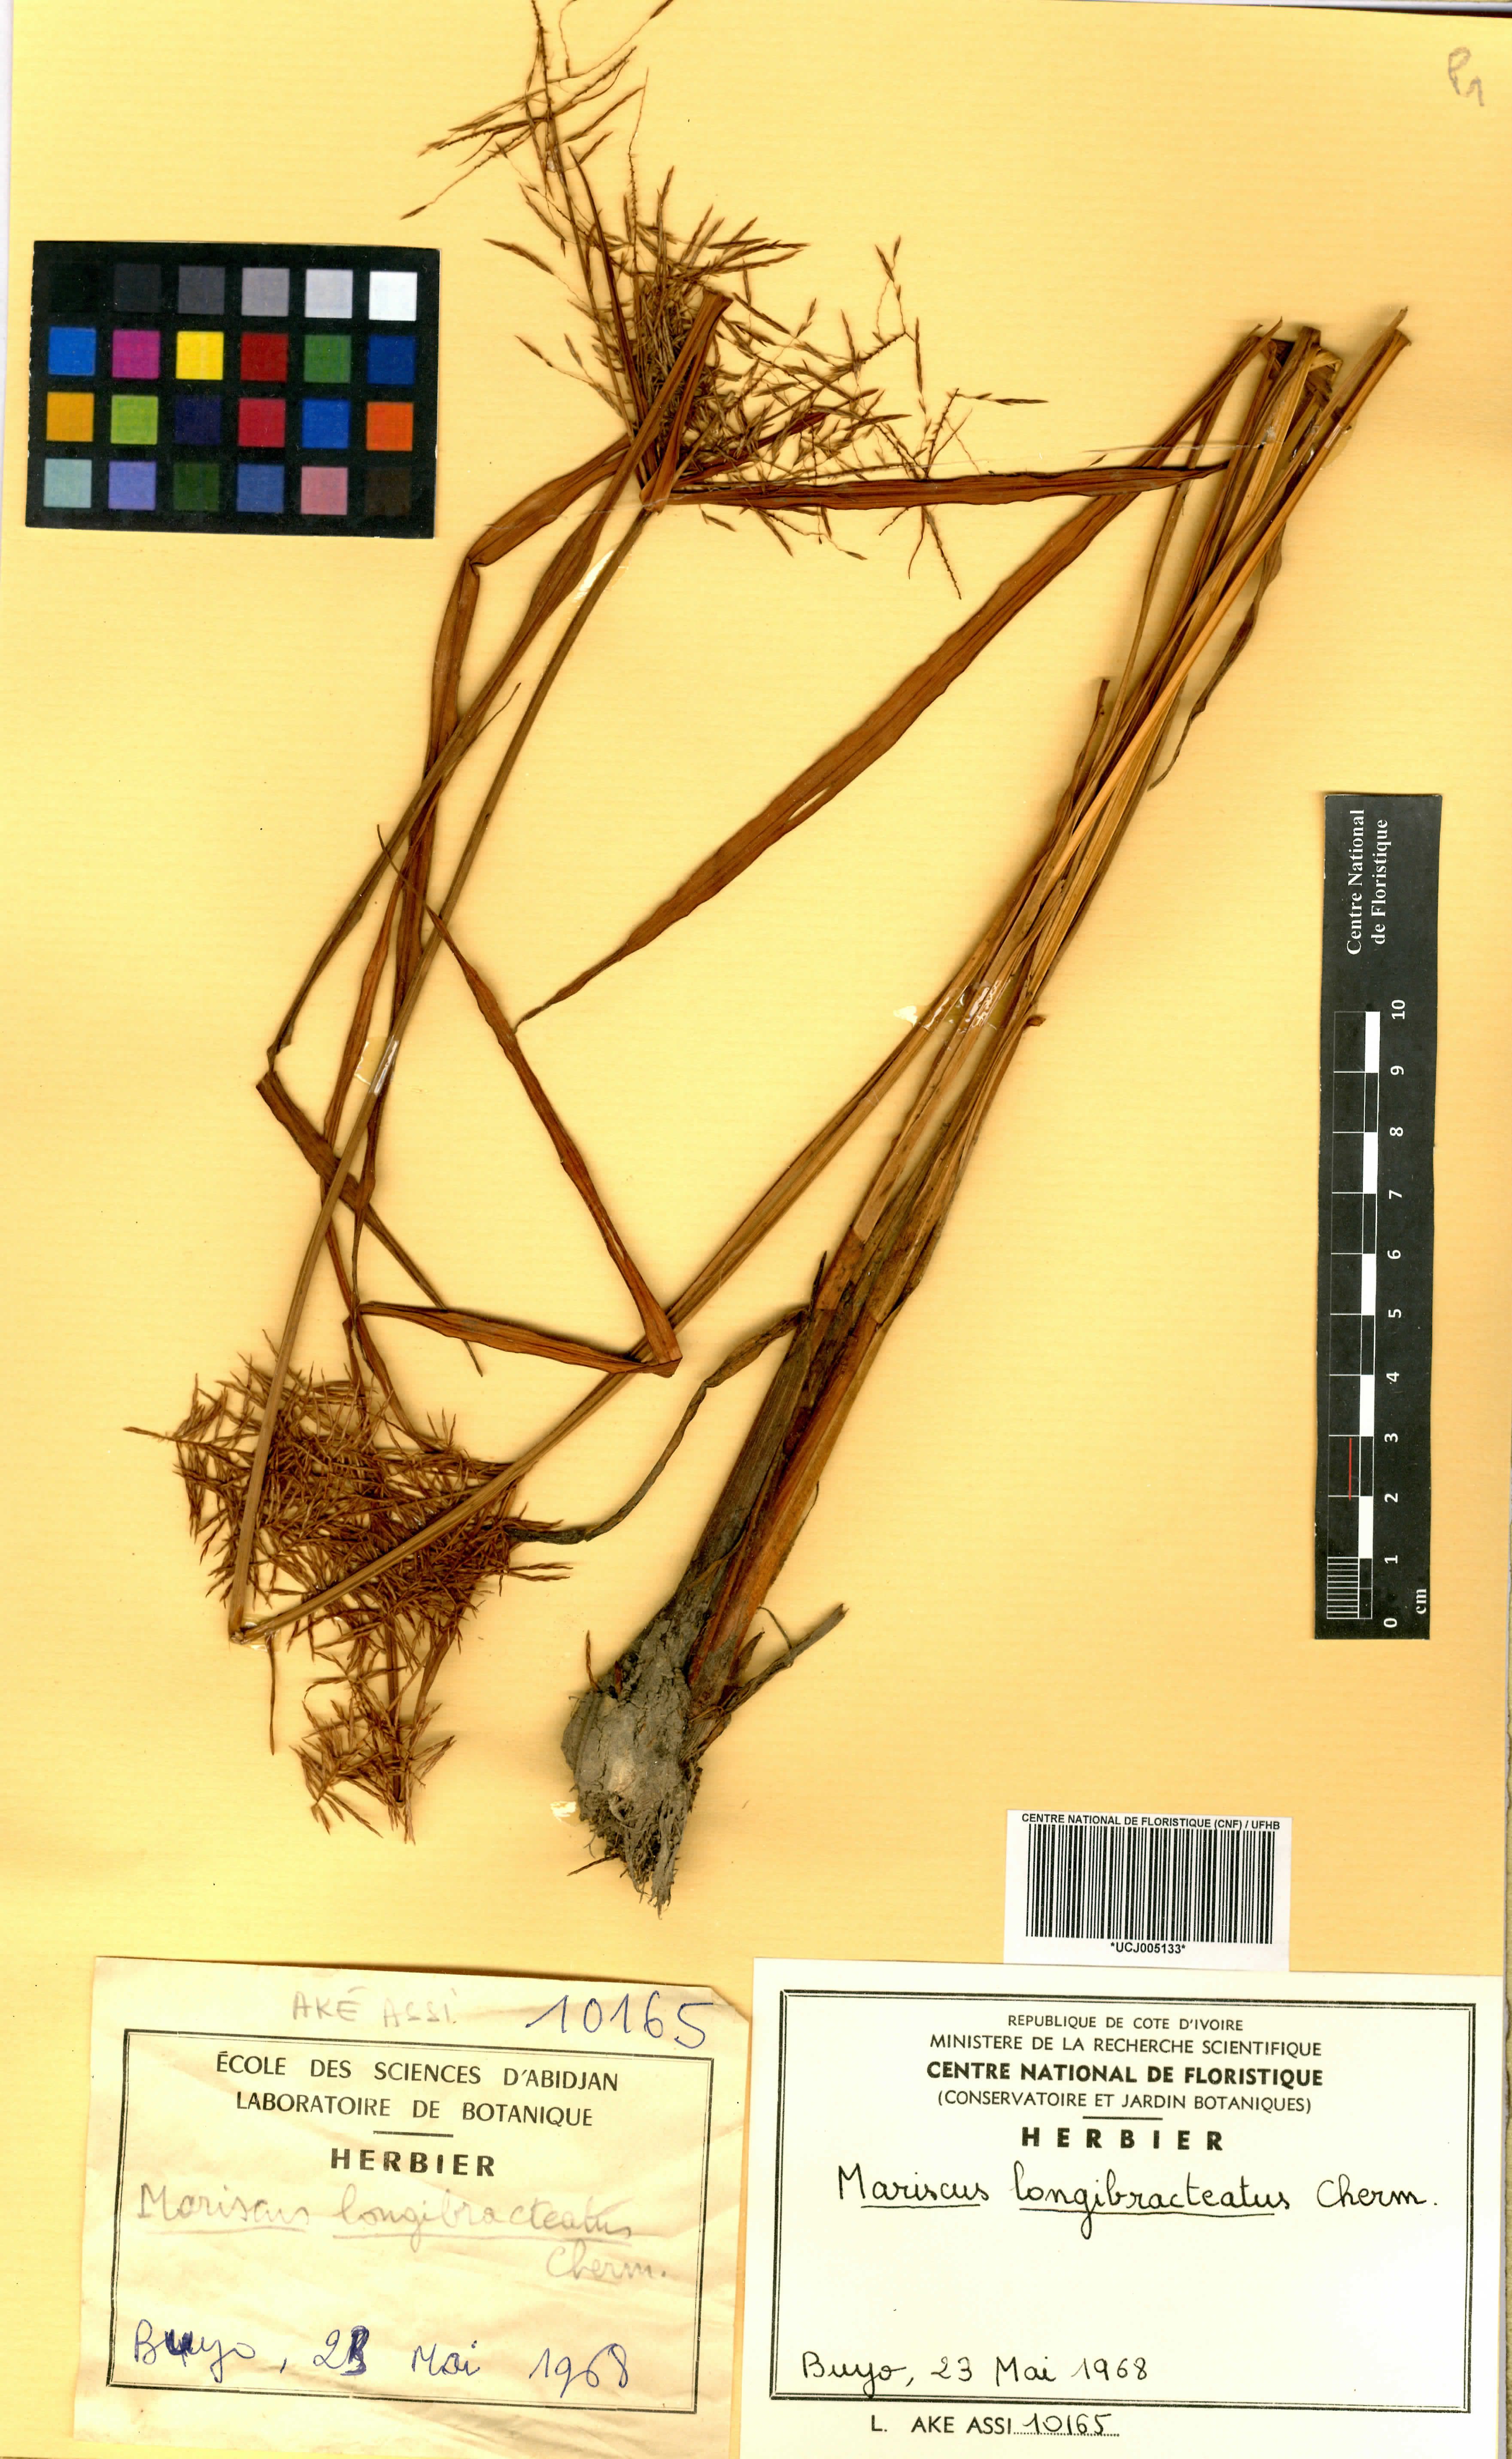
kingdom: Plantae
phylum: Tracheophyta
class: Liliopsida
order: Poales
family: Cyperaceae
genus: Cyperus
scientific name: Cyperus distans
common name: Slender cyperus
